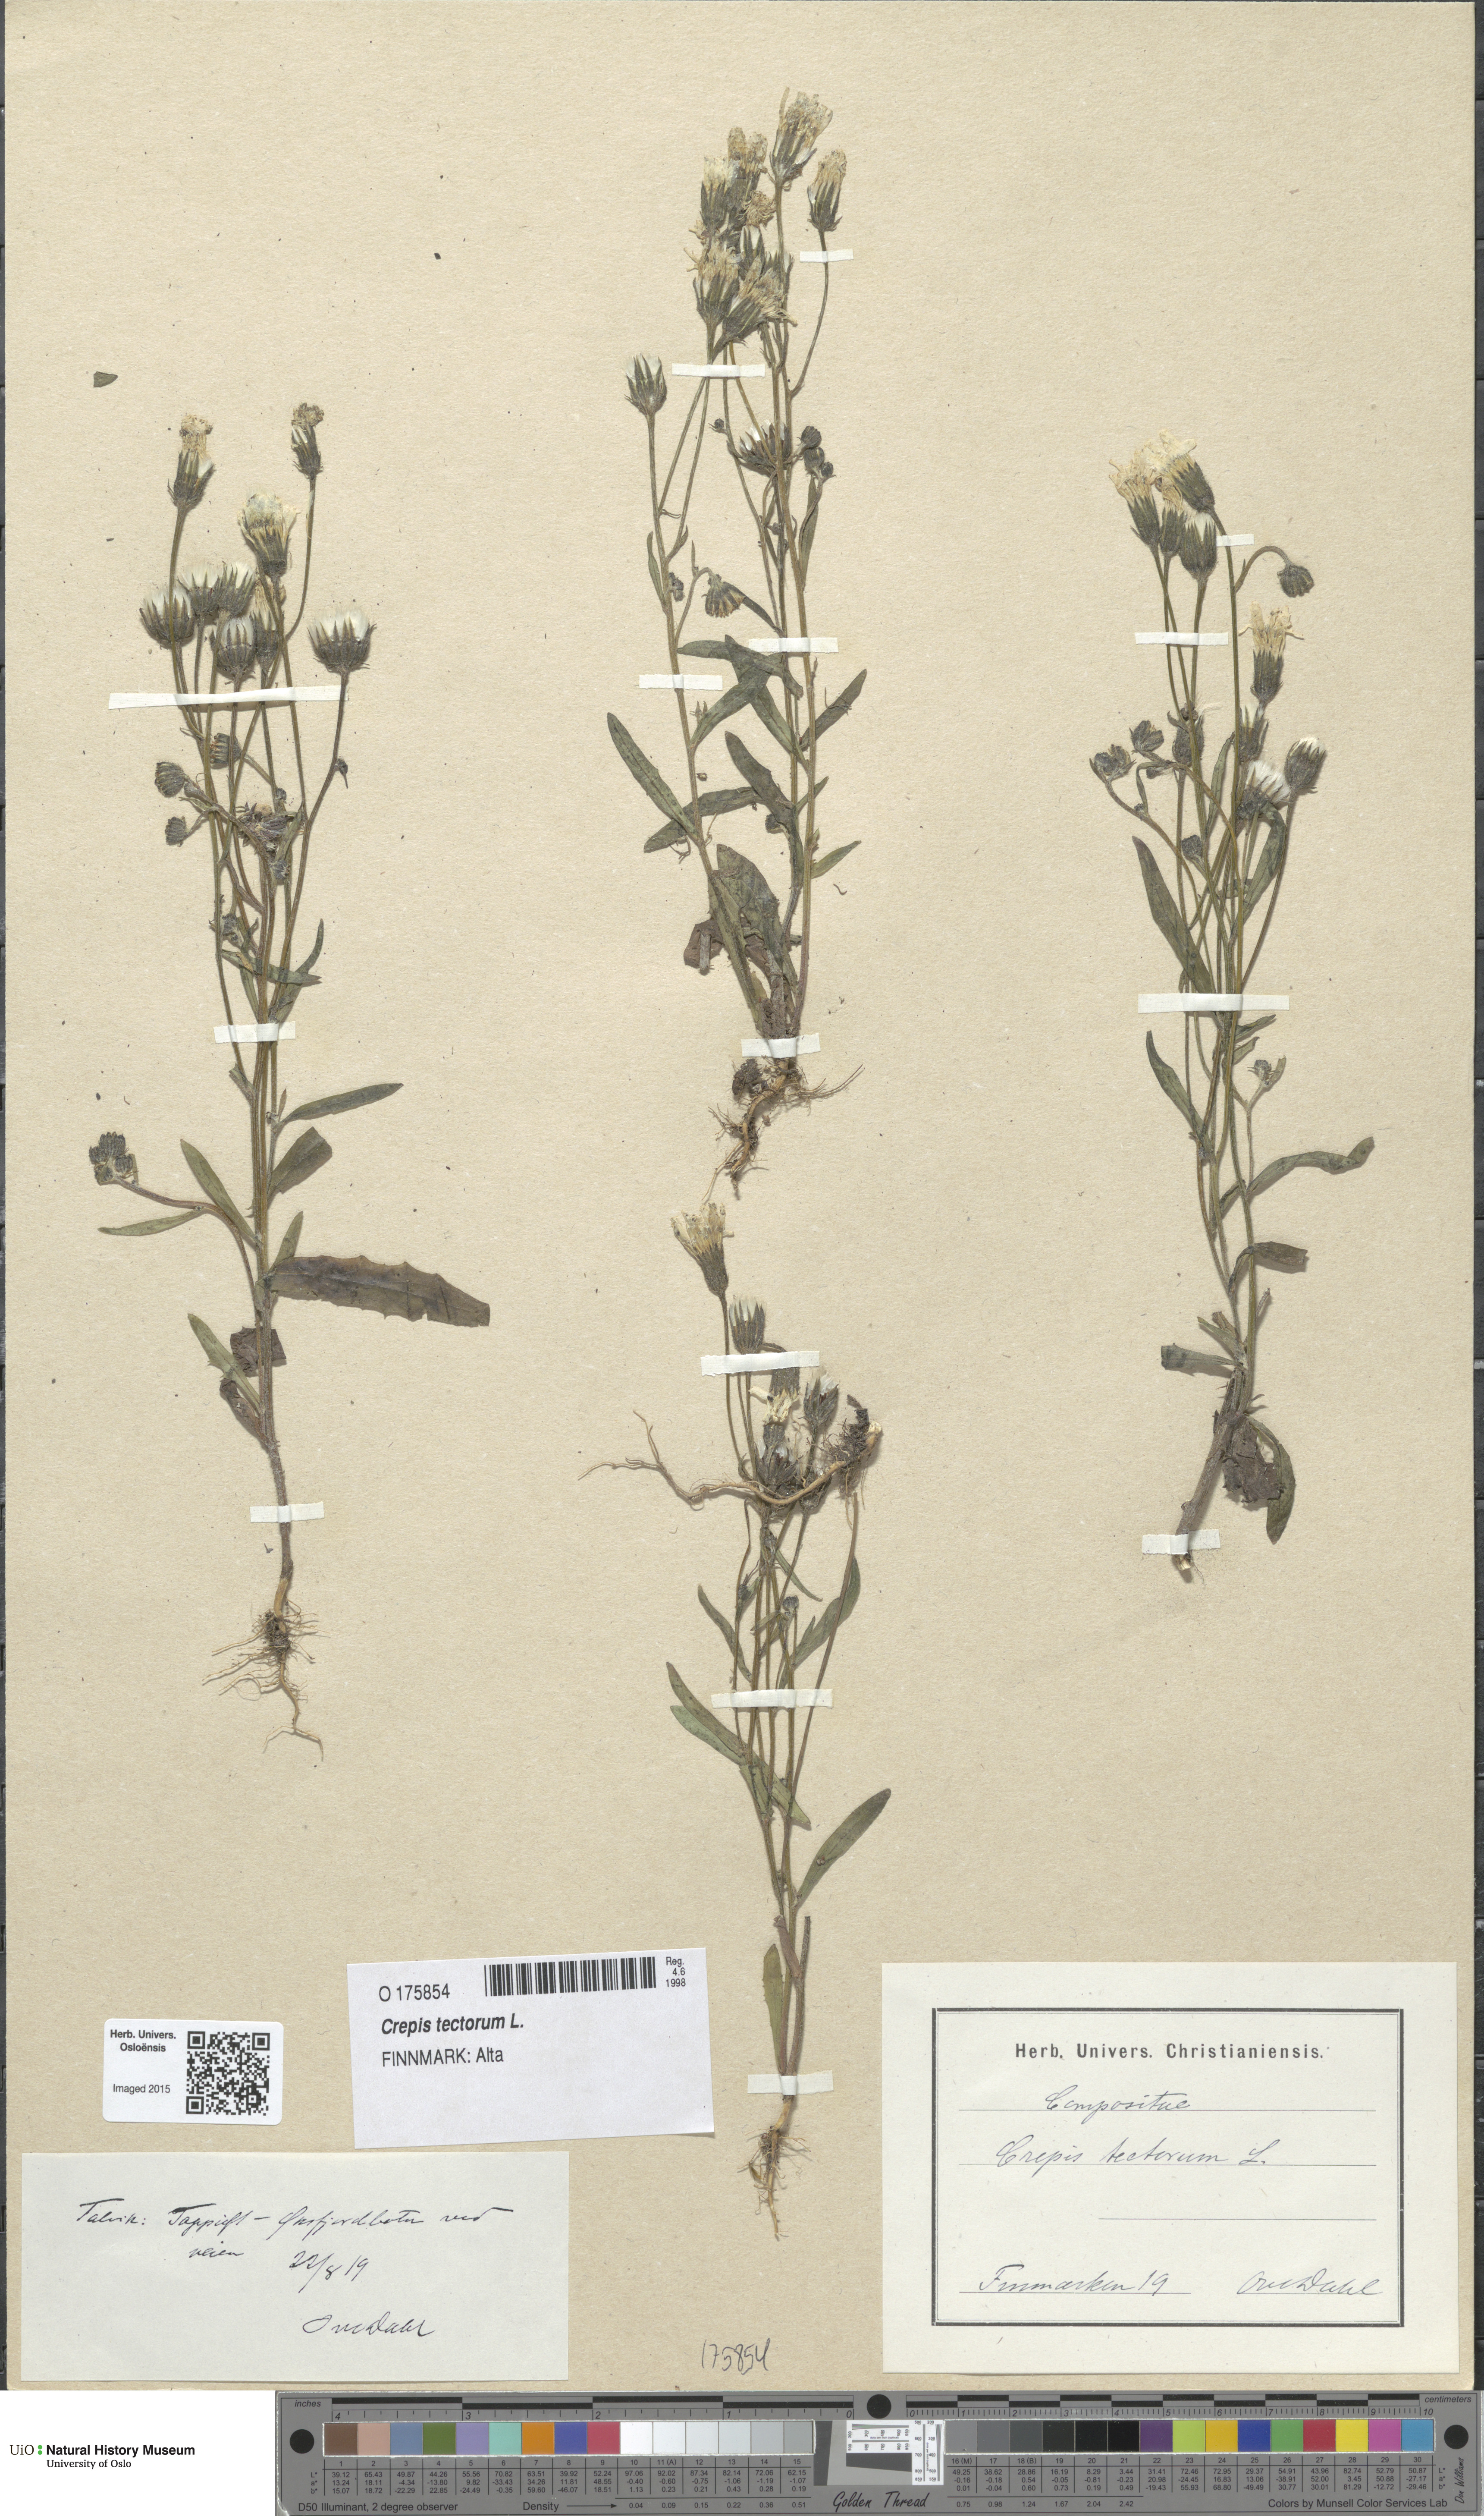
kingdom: Plantae
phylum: Tracheophyta
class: Magnoliopsida
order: Asterales
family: Asteraceae
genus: Crepis
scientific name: Crepis tectorum
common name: Narrow-leaved hawk's-beard
